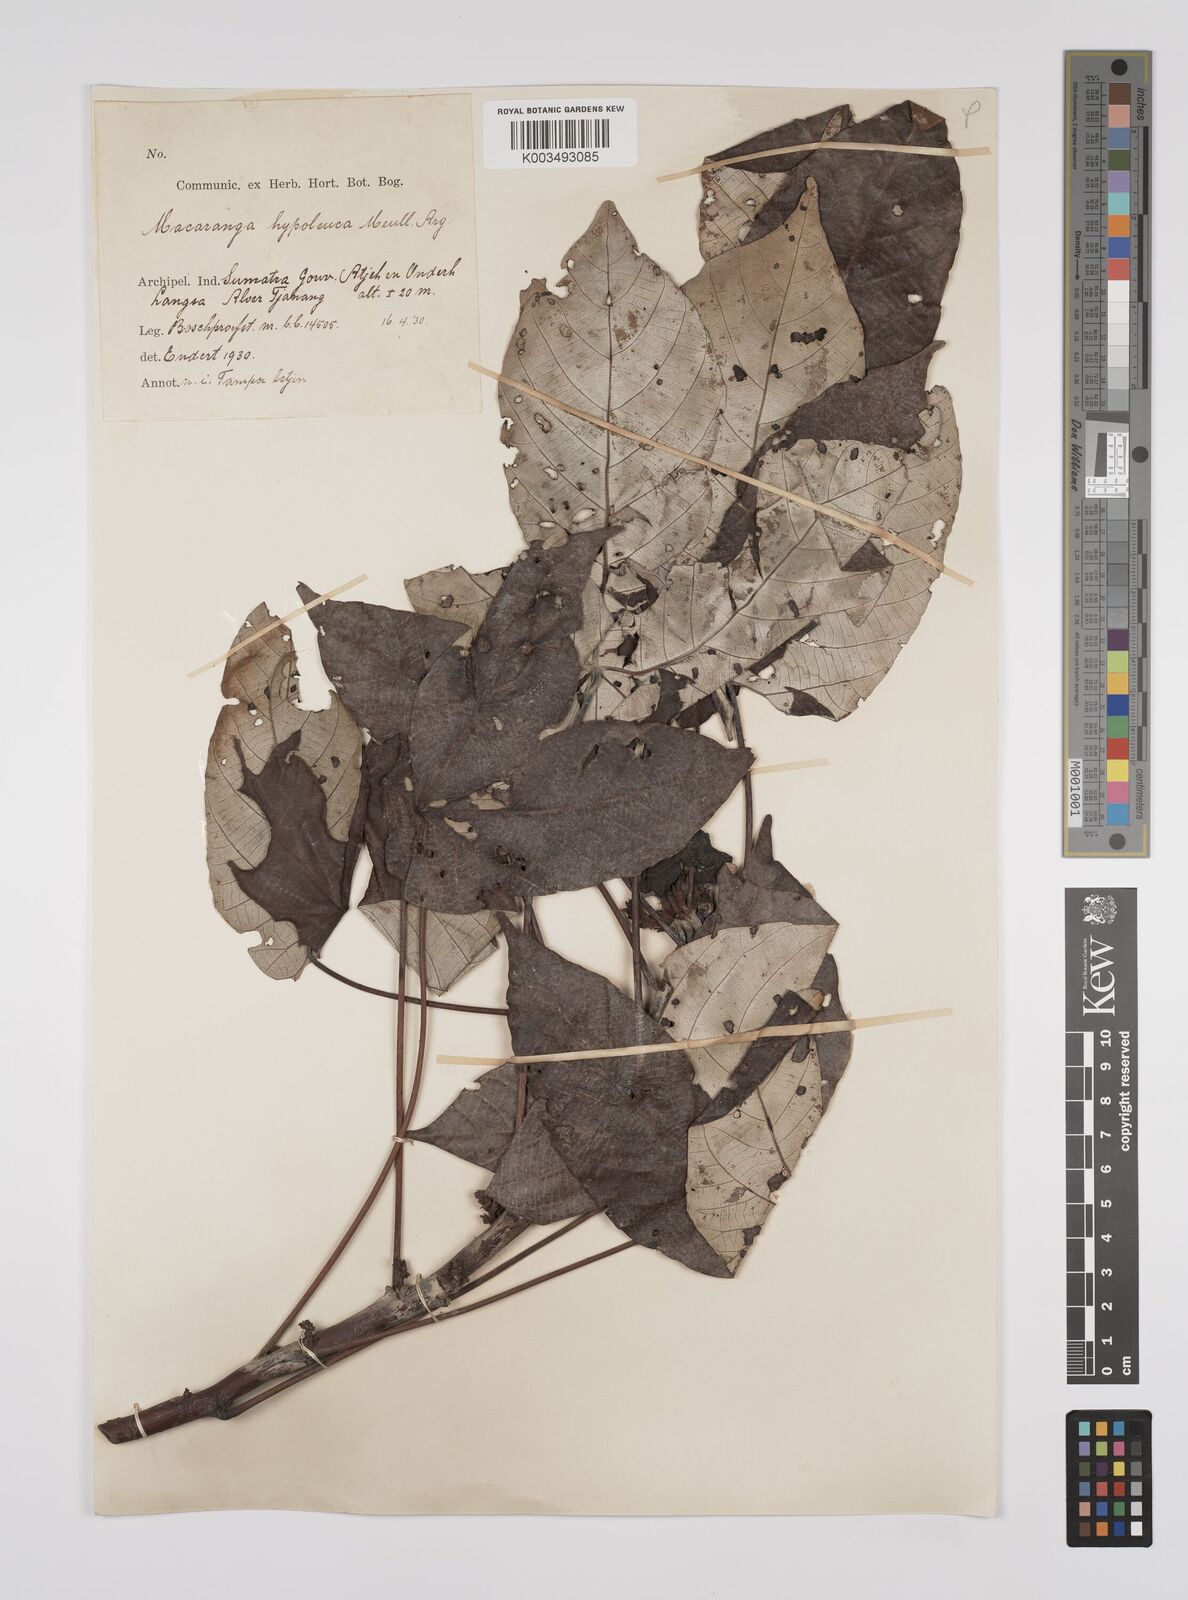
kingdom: Plantae
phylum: Tracheophyta
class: Magnoliopsida
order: Malpighiales
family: Euphorbiaceae
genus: Macaranga
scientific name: Macaranga hypoleuca
